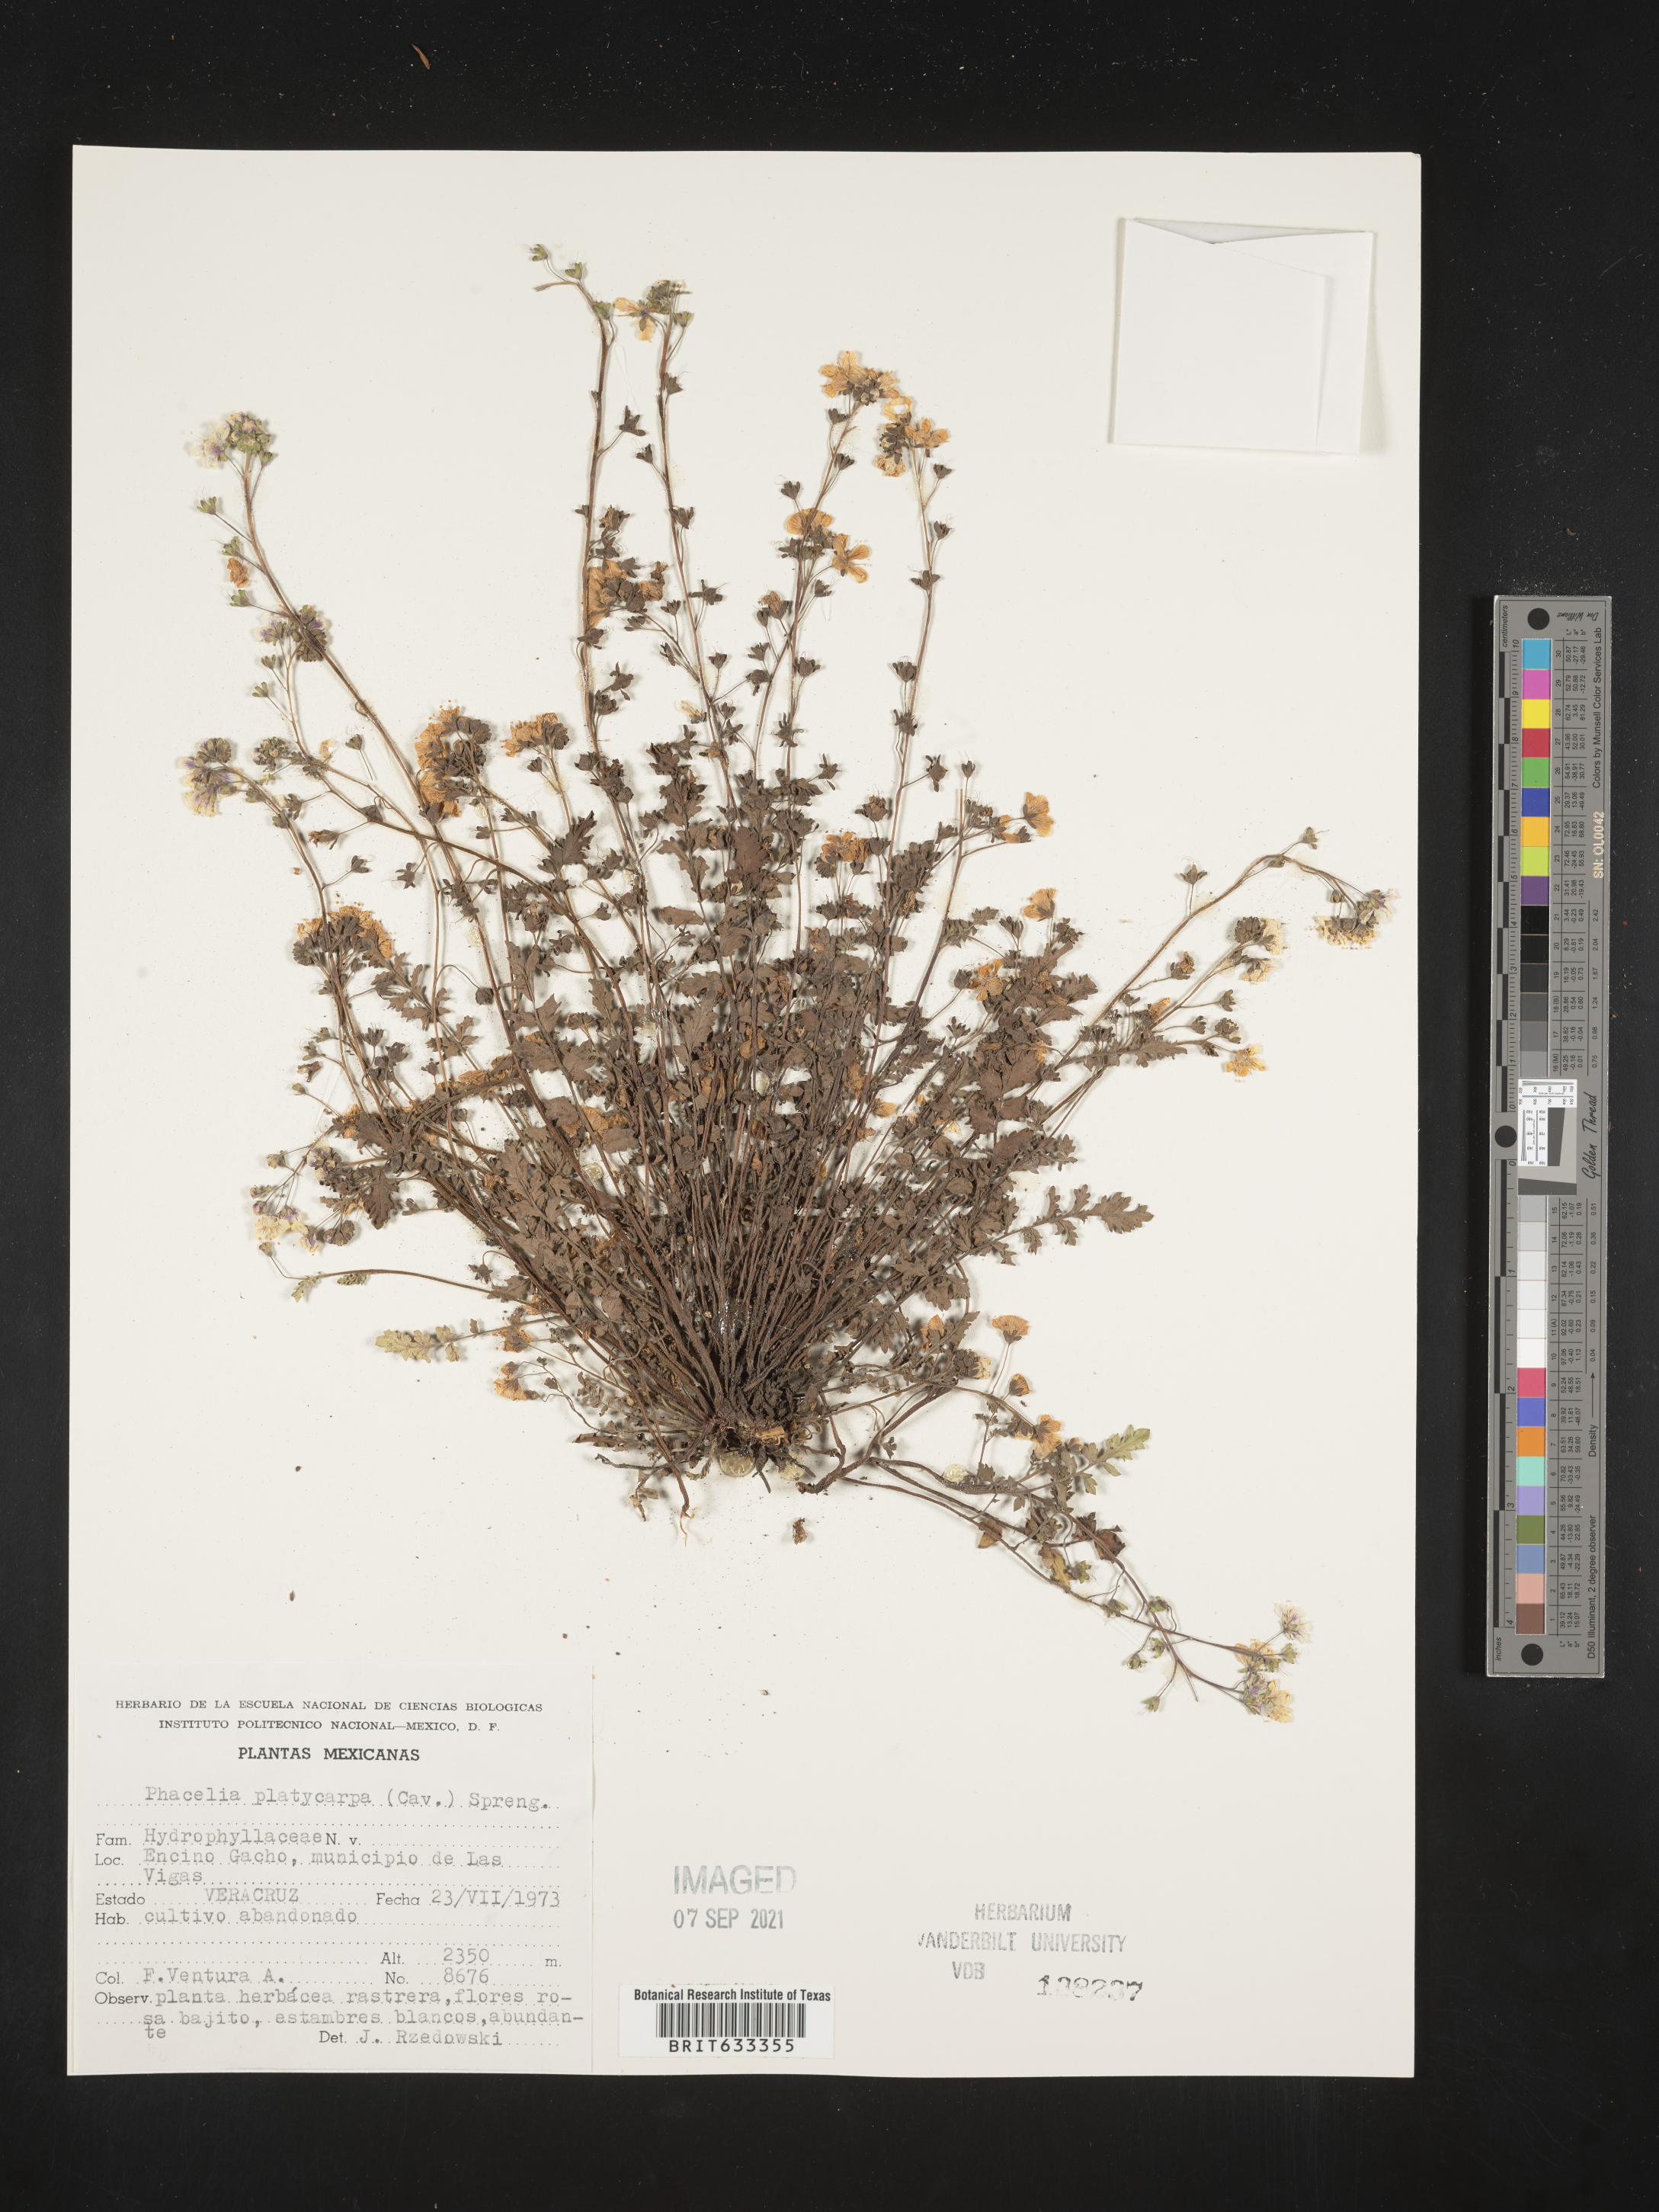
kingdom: Plantae
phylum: Tracheophyta
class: Magnoliopsida
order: Boraginales
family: Hydrophyllaceae
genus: Phacelia
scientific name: Phacelia
